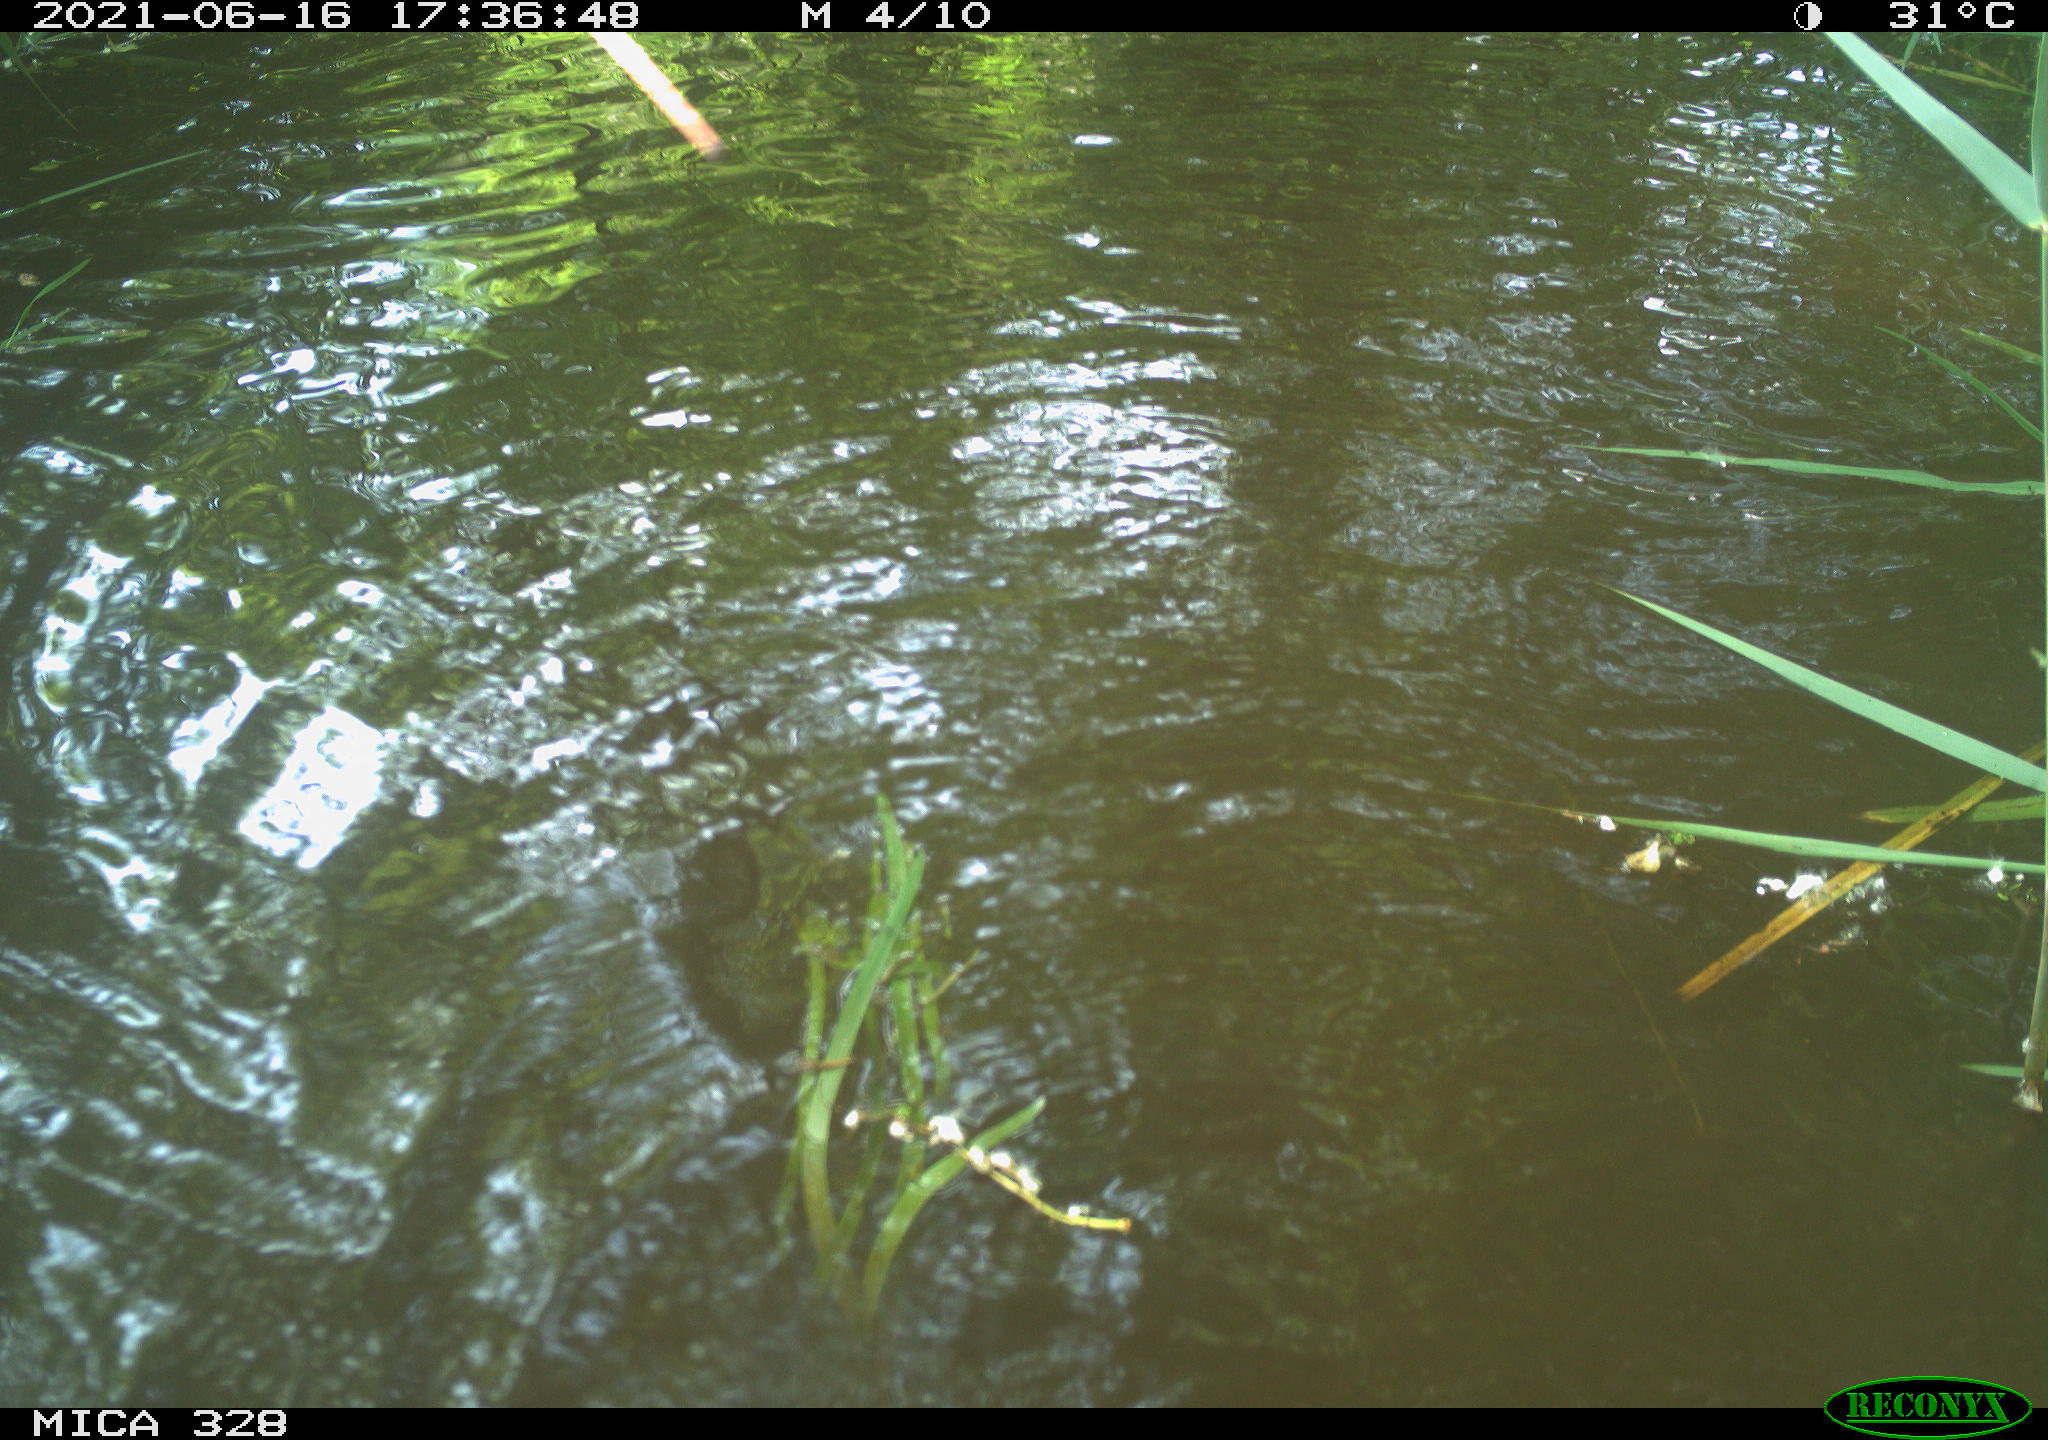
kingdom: Animalia
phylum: Chordata
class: Mammalia
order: Rodentia
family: Cricetidae
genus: Ondatra
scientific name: Ondatra zibethicus
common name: Muskrat
